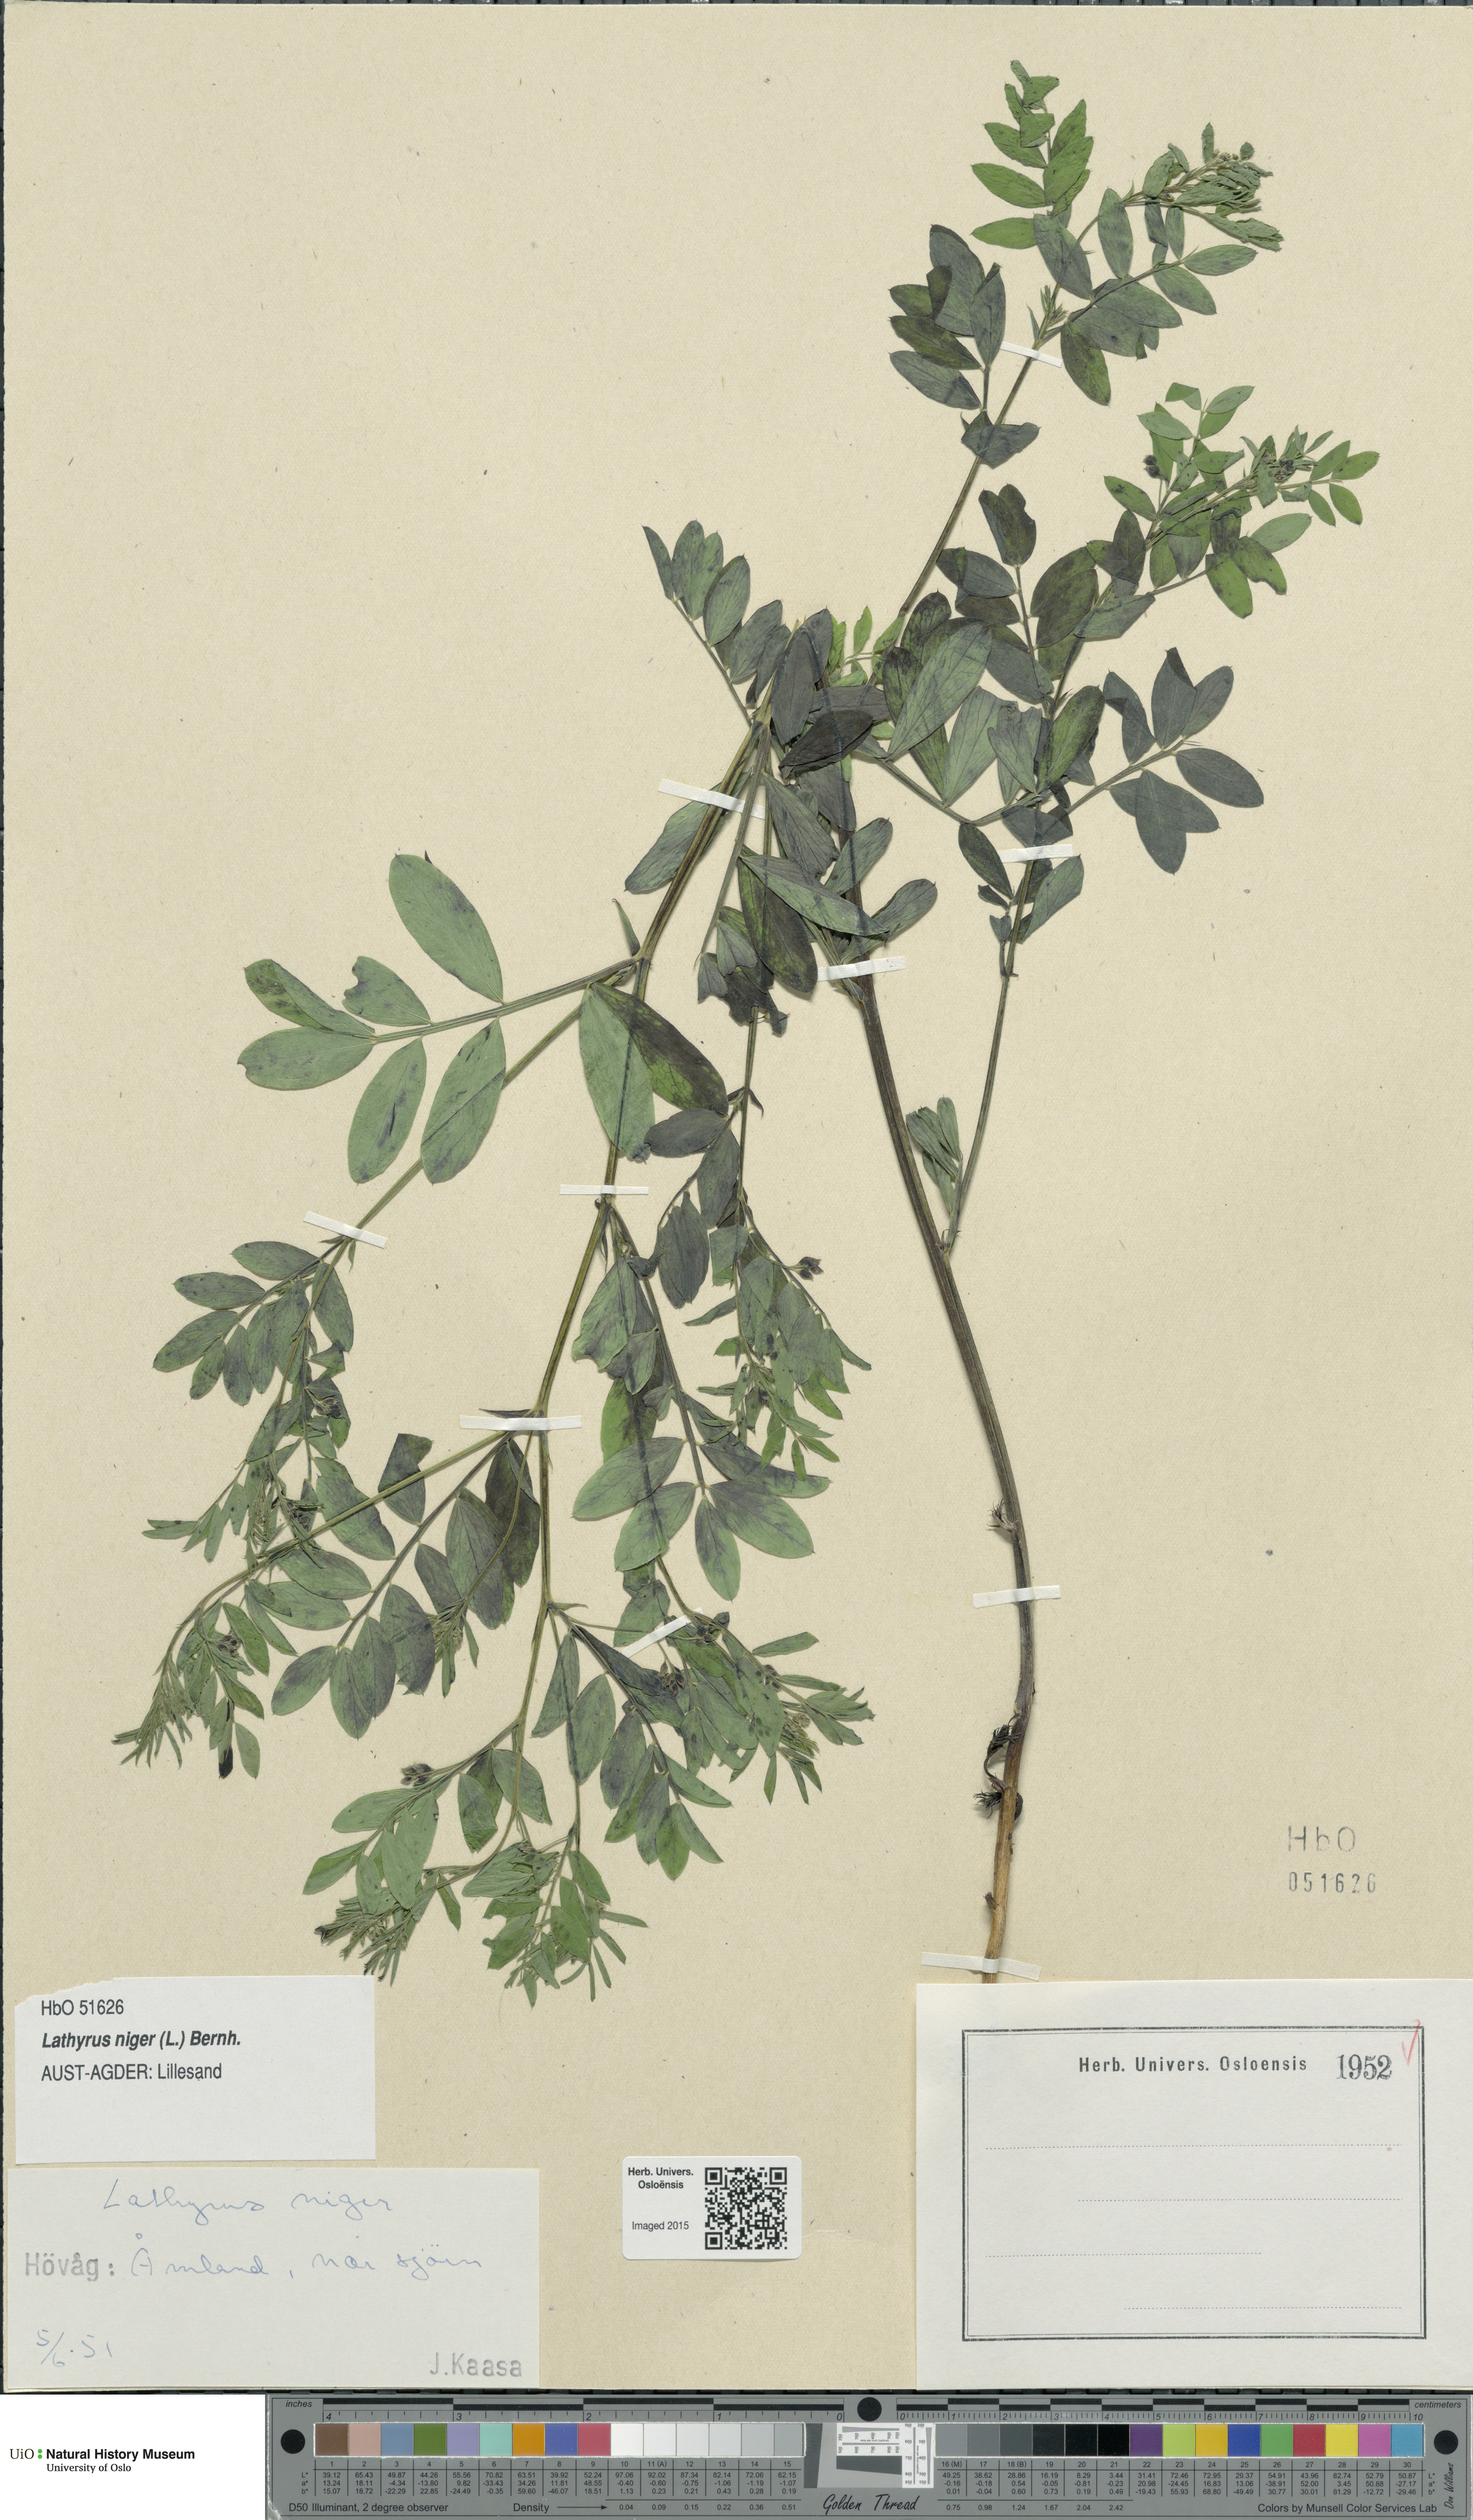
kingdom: Plantae
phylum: Tracheophyta
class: Magnoliopsida
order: Fabales
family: Fabaceae
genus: Lathyrus
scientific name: Lathyrus niger
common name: Black pea
